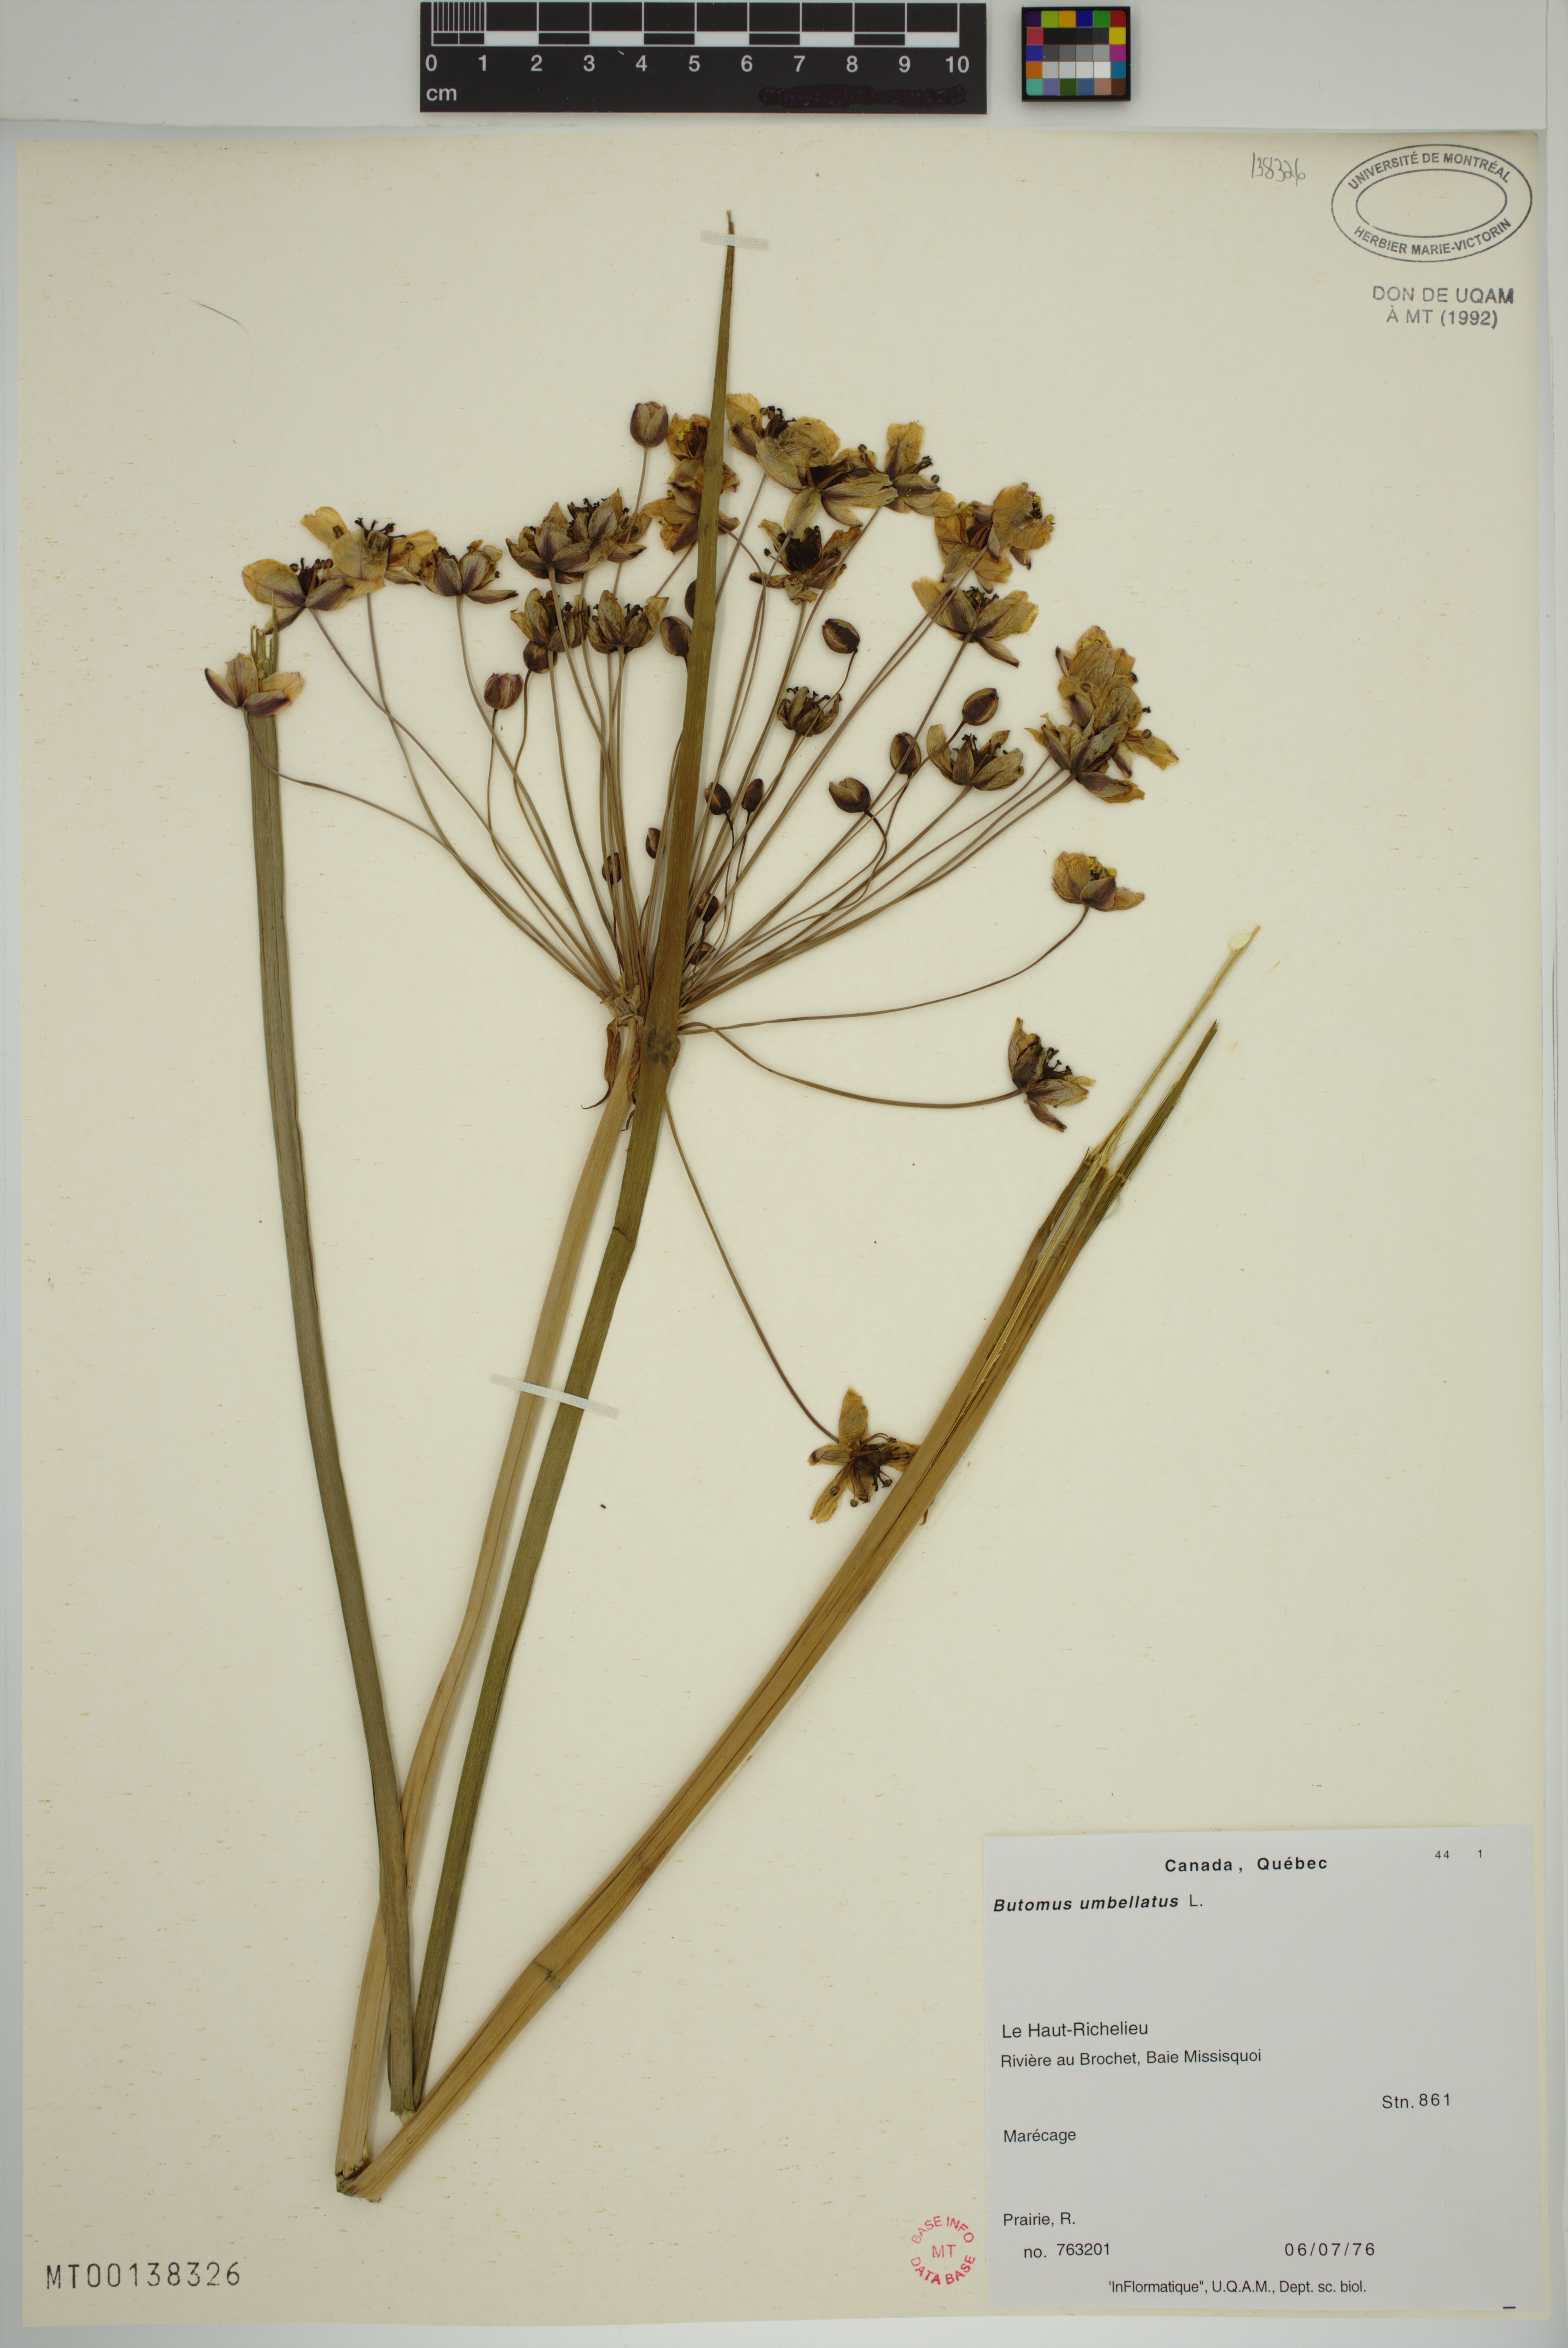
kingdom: Plantae
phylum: Tracheophyta
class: Liliopsida
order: Alismatales
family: Butomaceae
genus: Butomus
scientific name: Butomus umbellatus
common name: Flowering-rush
